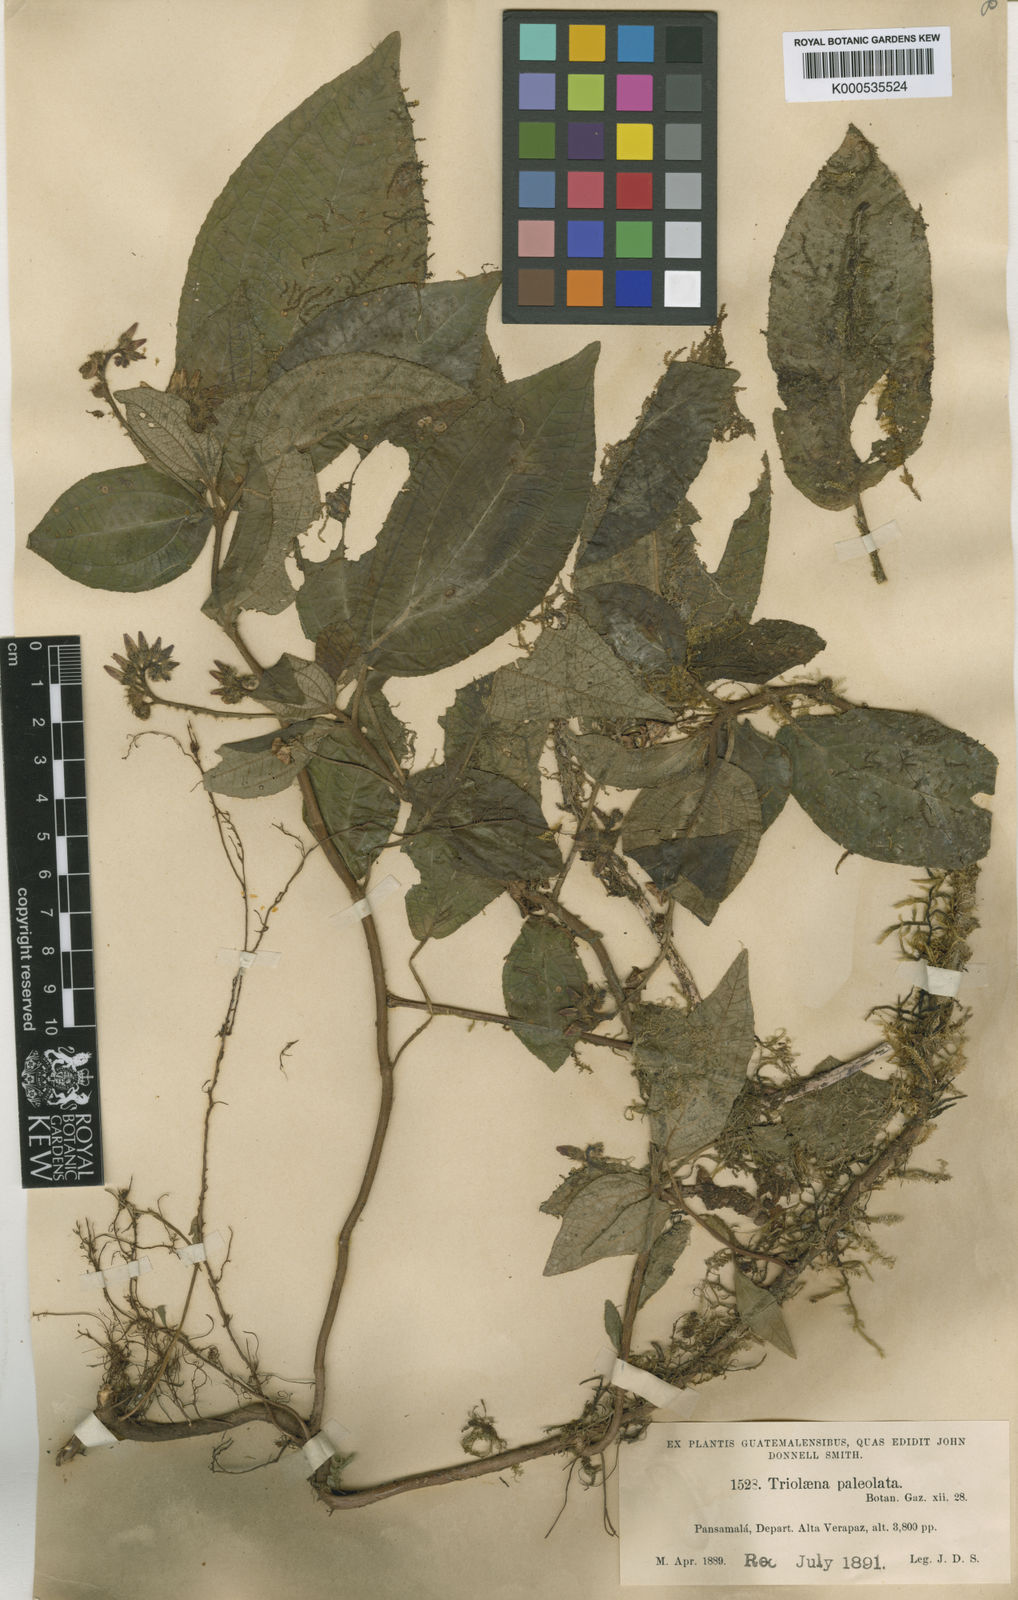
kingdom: Plantae
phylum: Tracheophyta
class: Magnoliopsida
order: Myrtales
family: Melastomataceae
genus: Triolena
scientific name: Triolena paleolata
